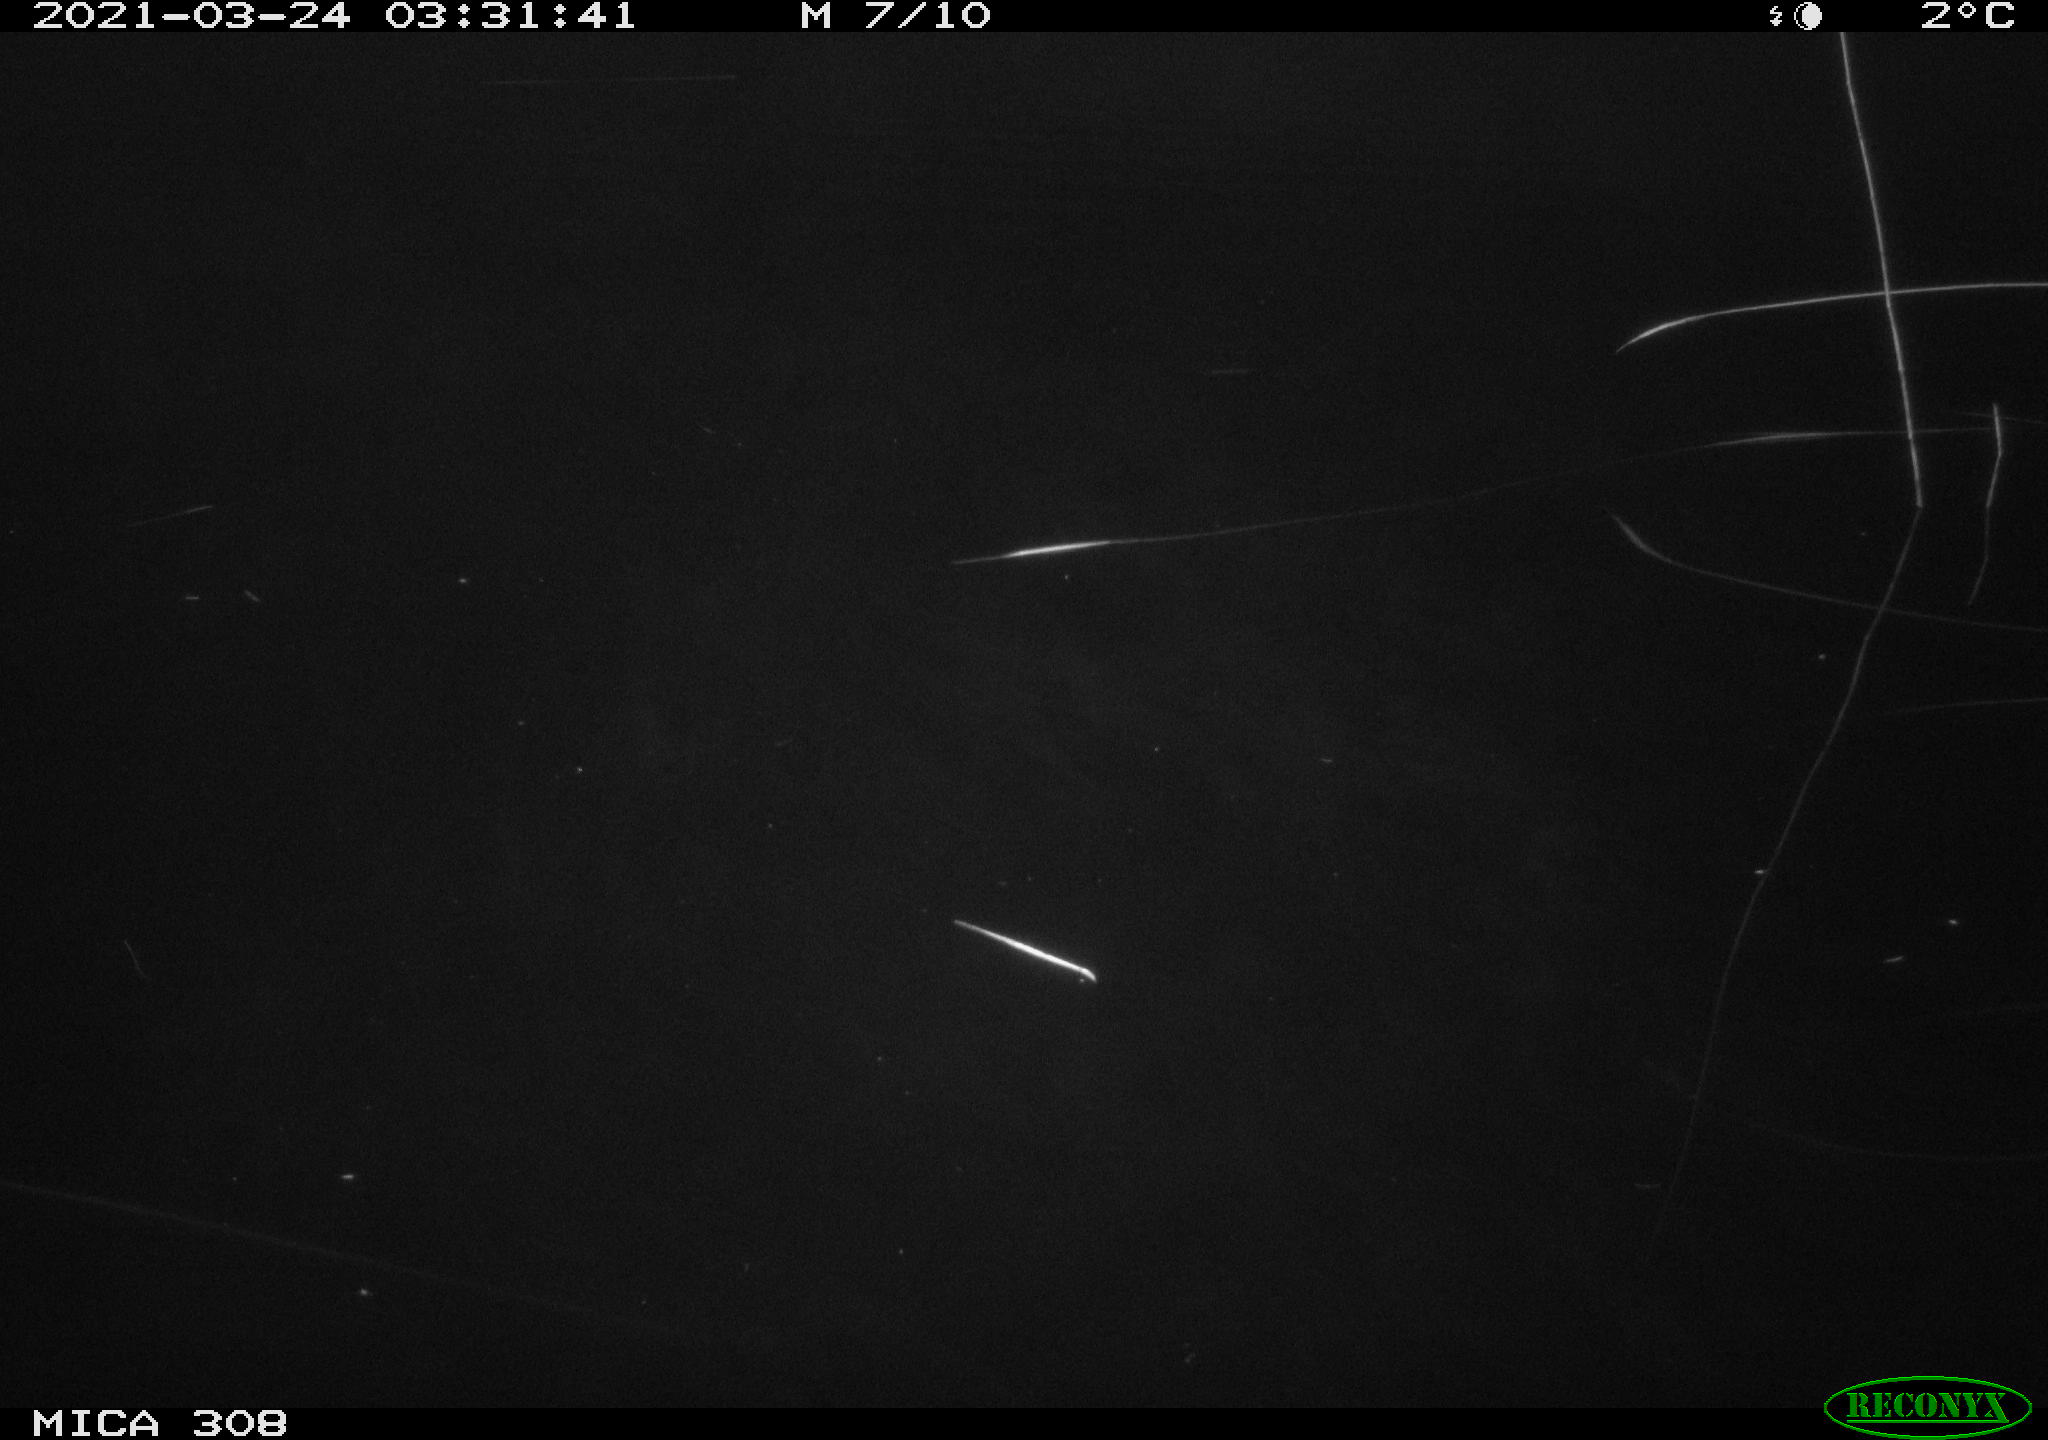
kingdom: Animalia
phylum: Chordata
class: Aves
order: Anseriformes
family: Anatidae
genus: Anas
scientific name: Anas platyrhynchos
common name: Mallard
